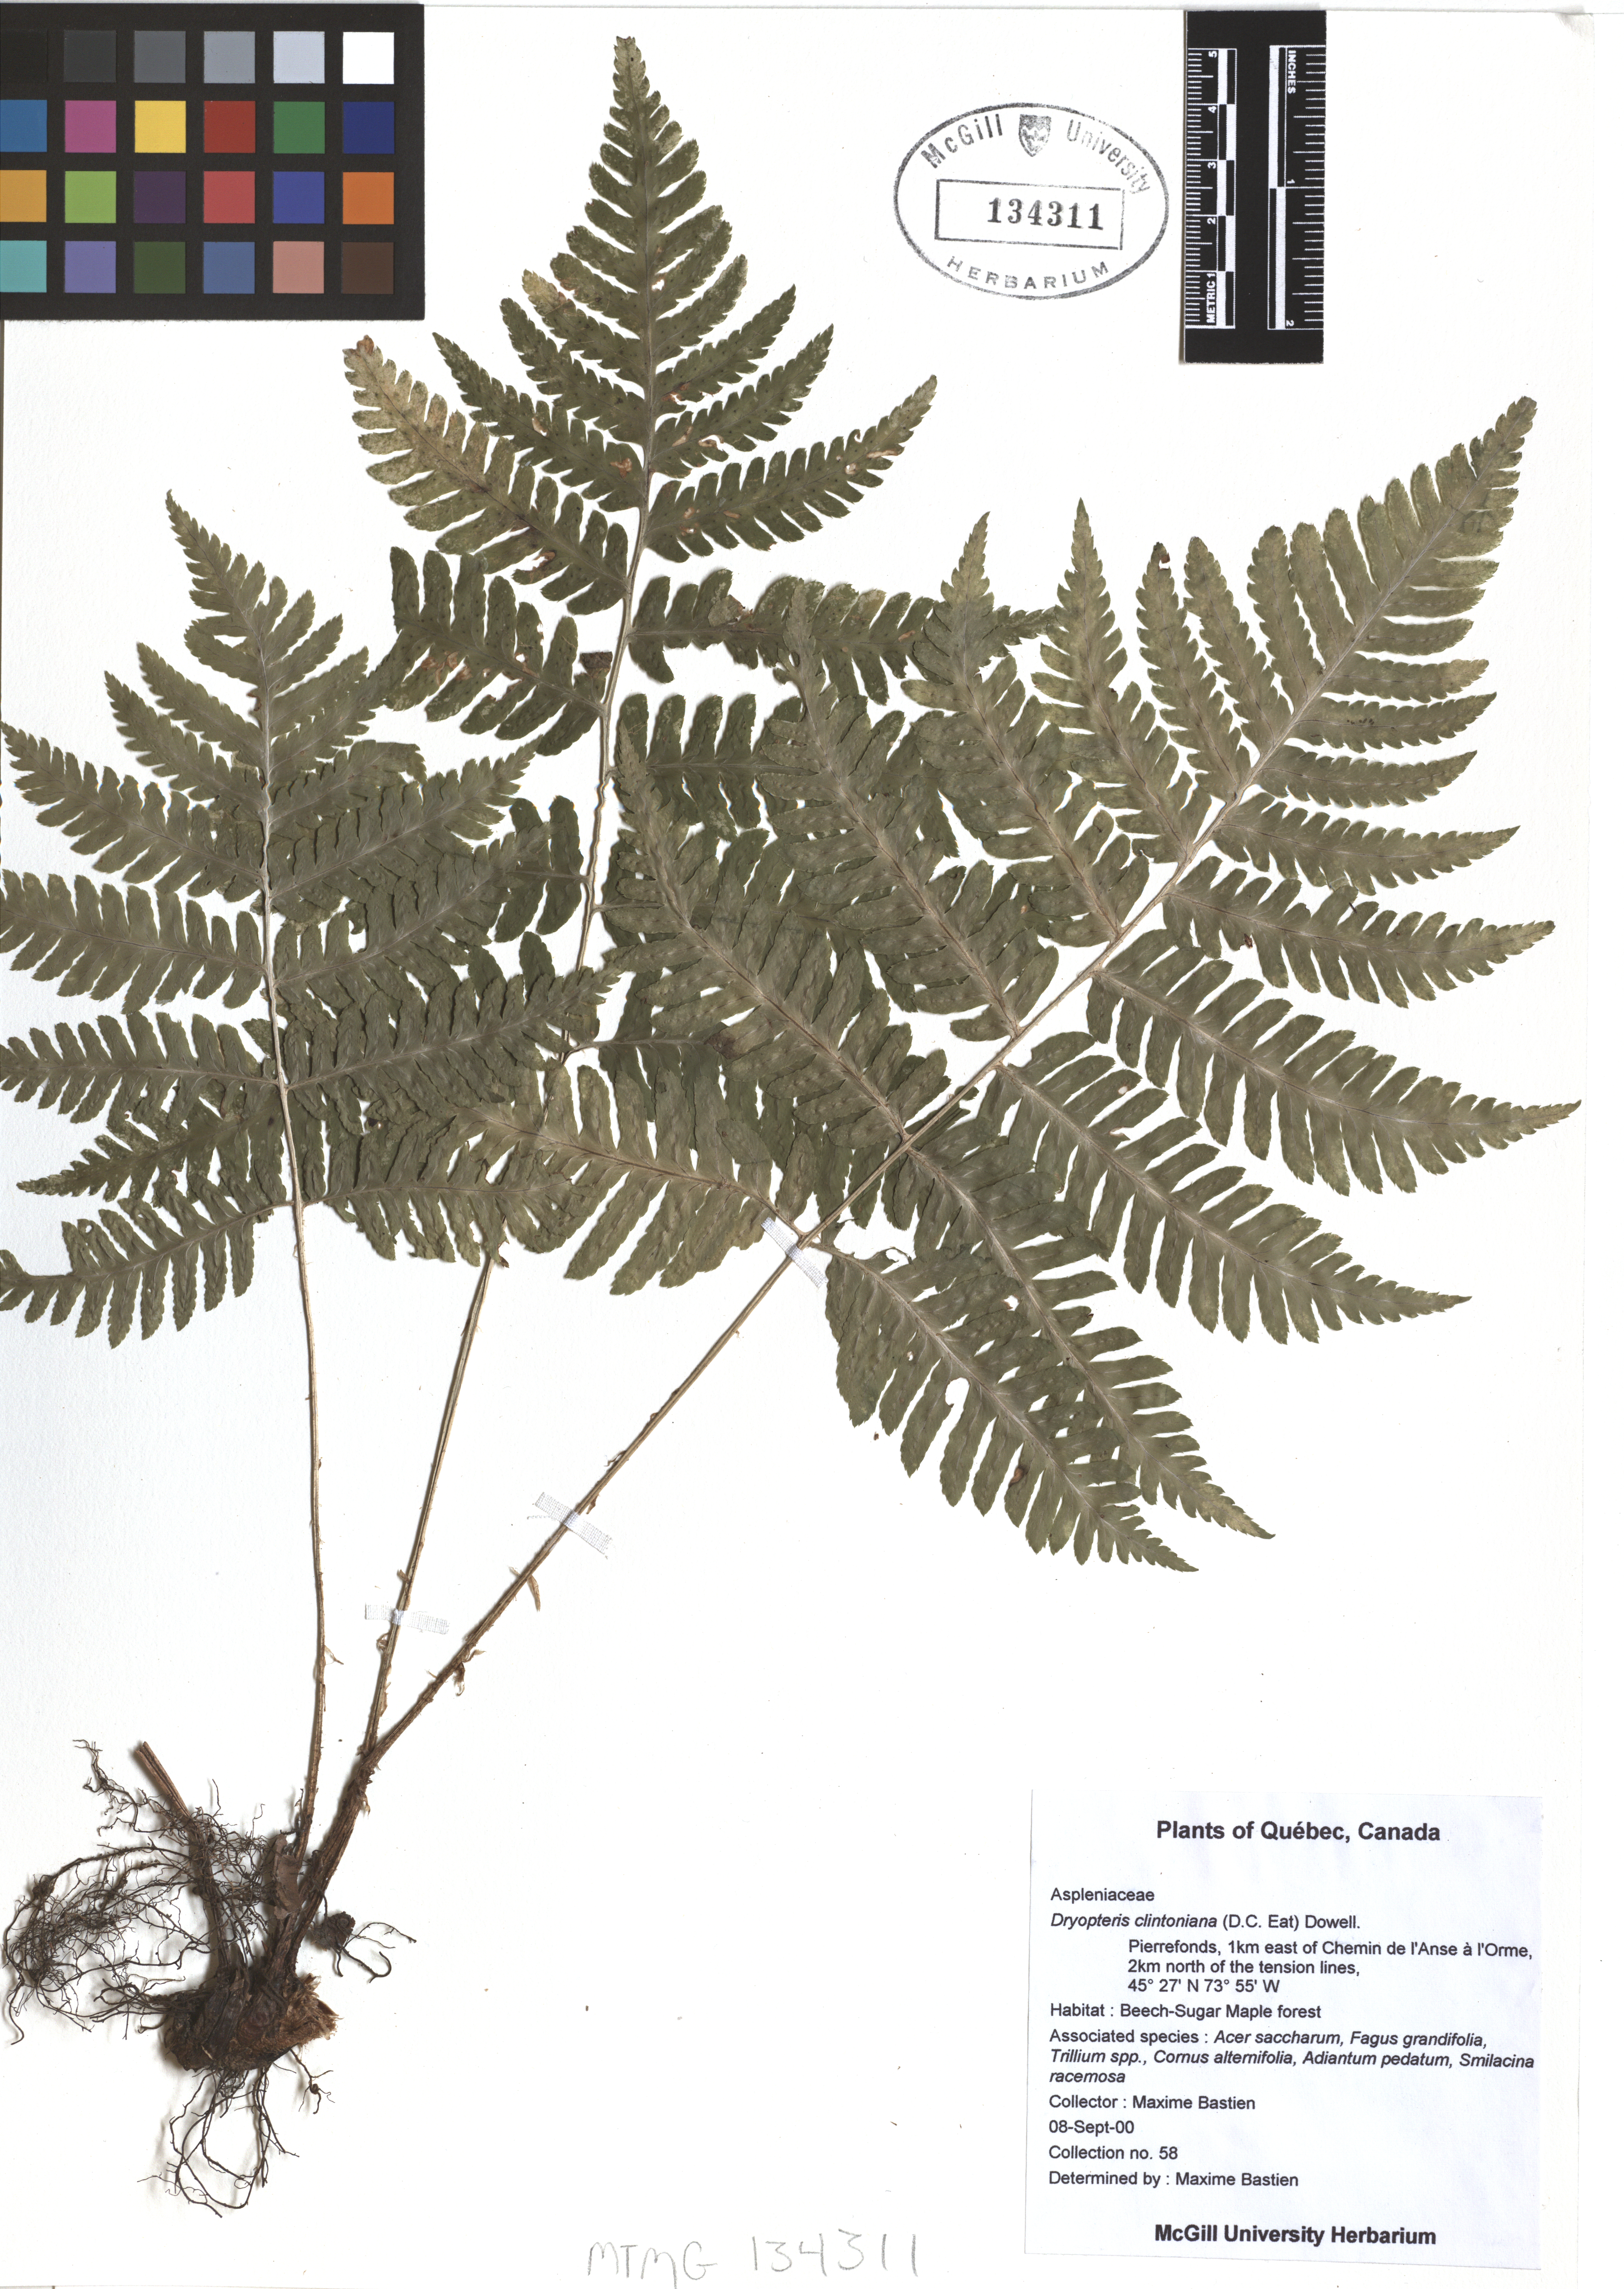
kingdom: Plantae
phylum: Tracheophyta
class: Polypodiopsida
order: Polypodiales
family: Dryopteridaceae
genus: Dryopteris
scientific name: Dryopteris clintoniana
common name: Clinton's wood fern
